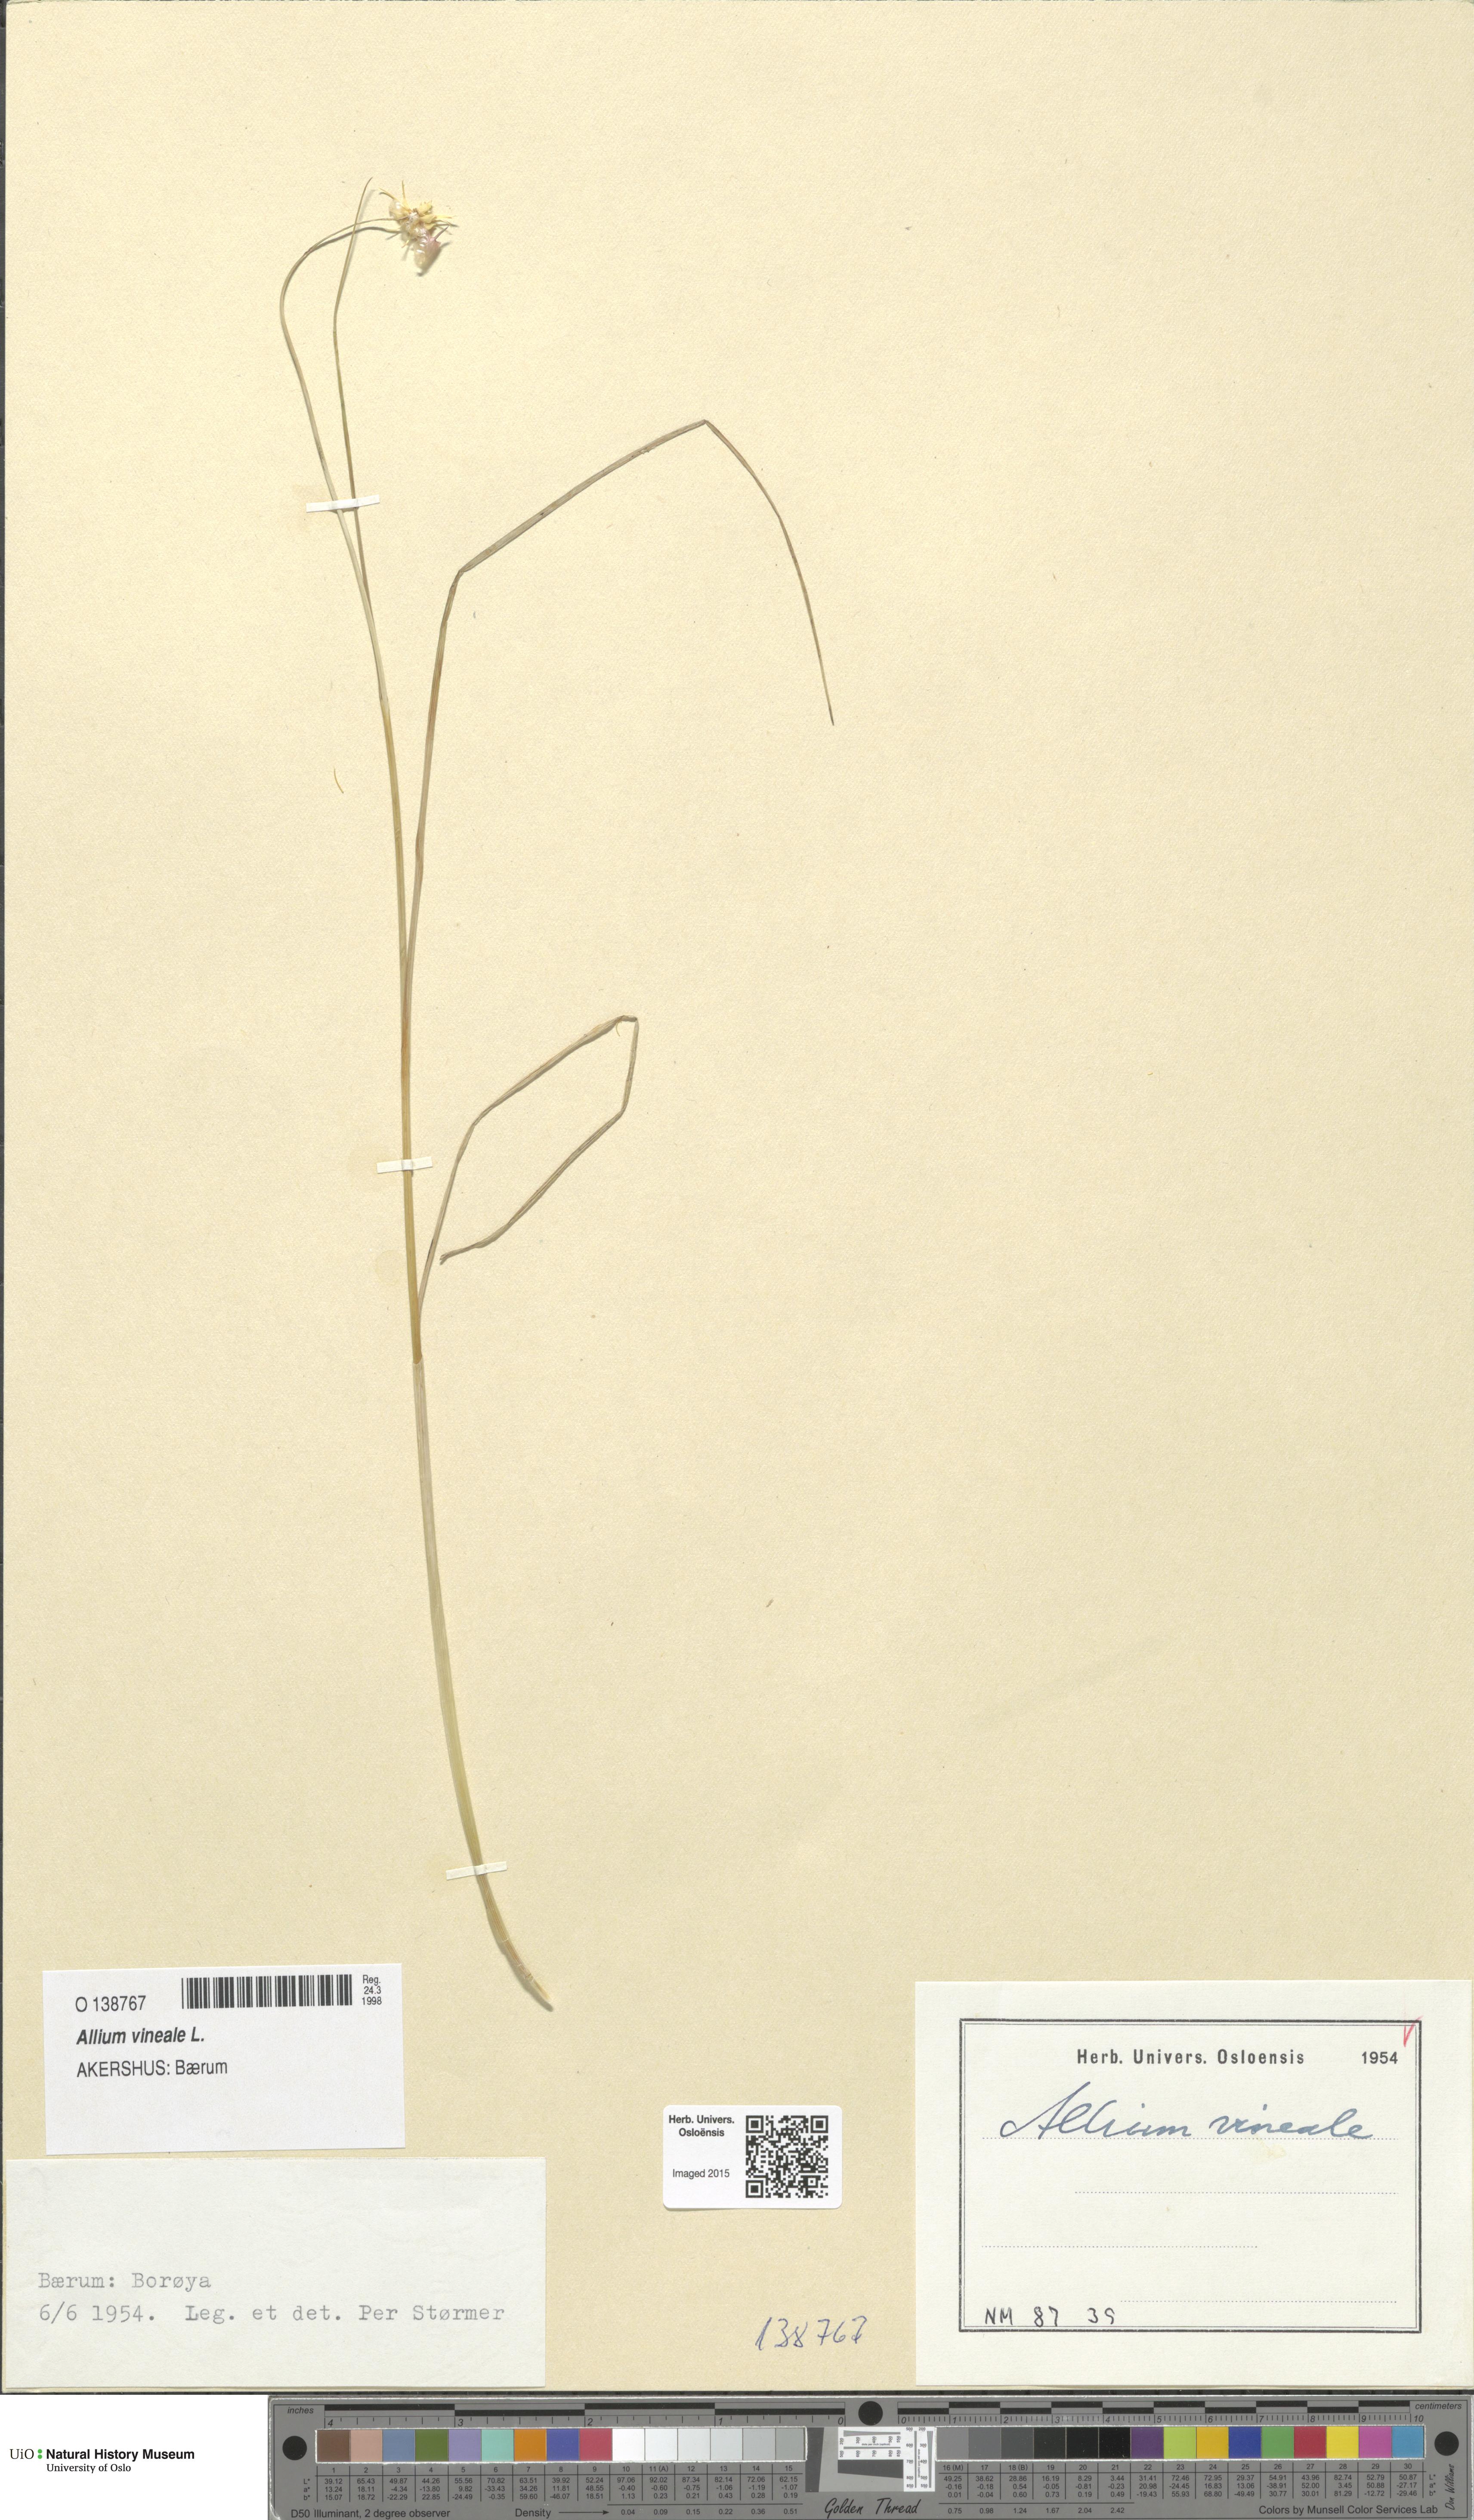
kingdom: Plantae
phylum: Tracheophyta
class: Liliopsida
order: Asparagales
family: Amaryllidaceae
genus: Allium
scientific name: Allium vineale
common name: Crow garlic
